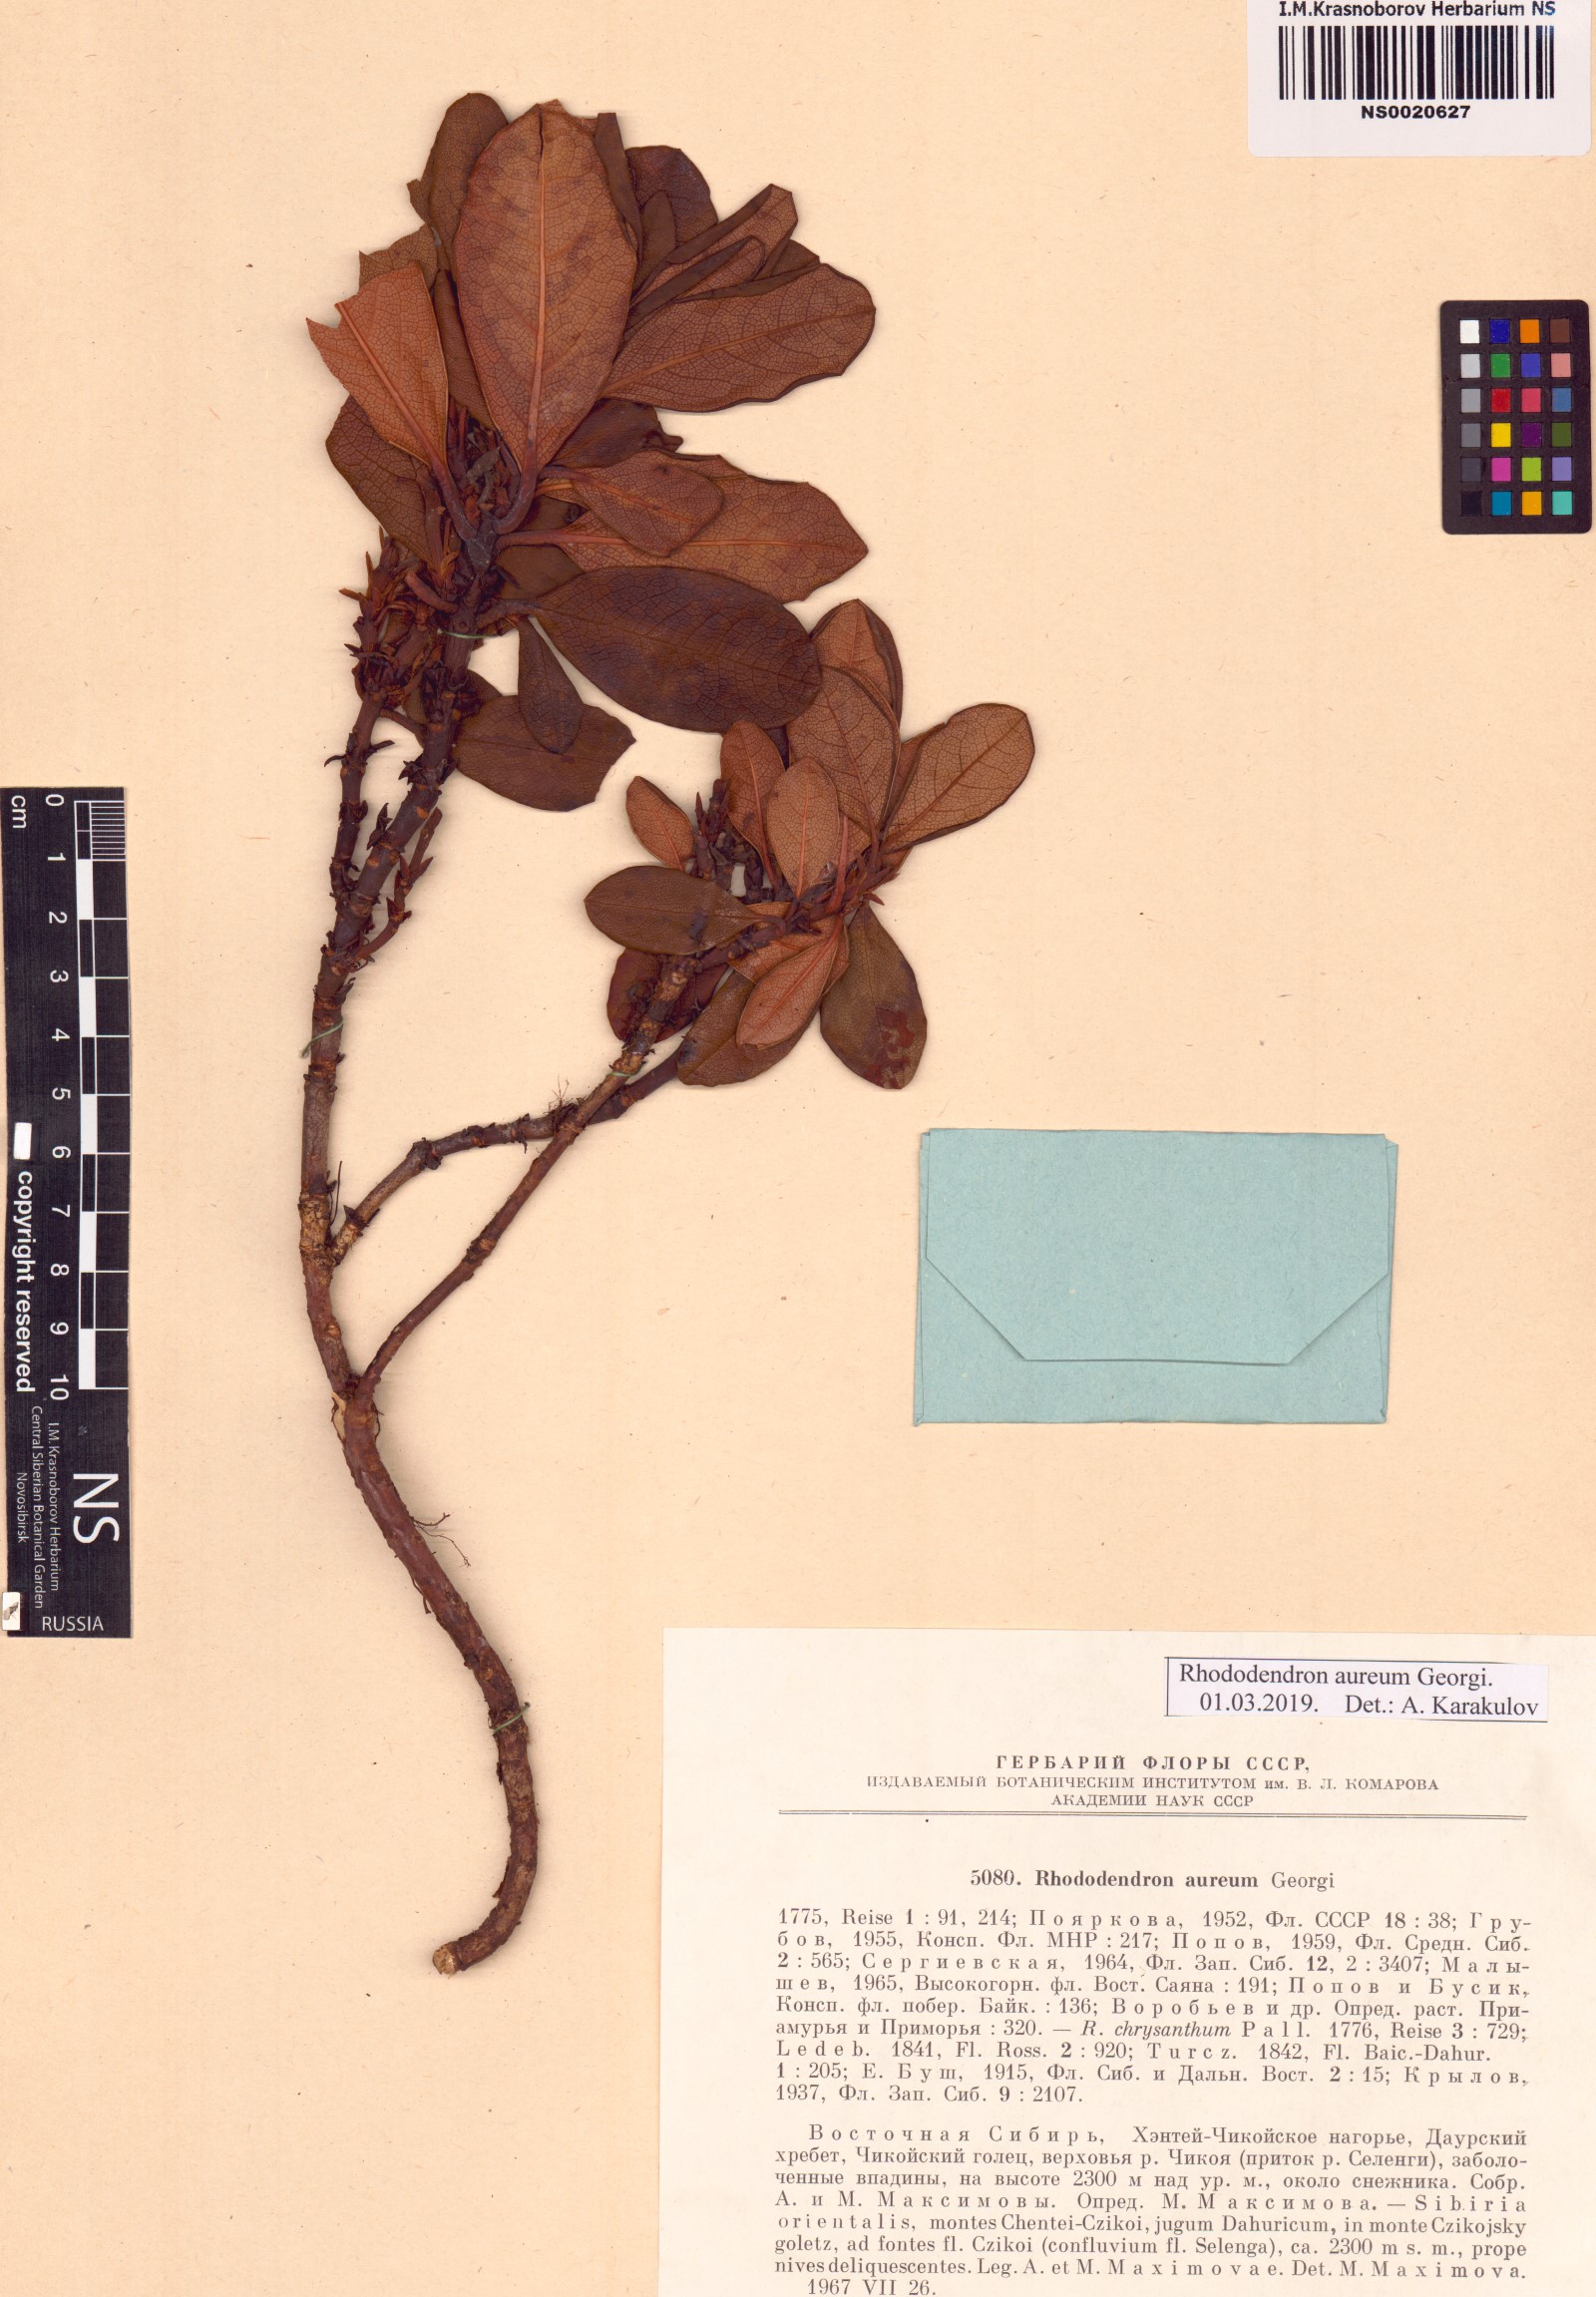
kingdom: Plantae
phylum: Tracheophyta
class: Magnoliopsida
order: Ericales
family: Ericaceae
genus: Rhododendron
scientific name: Rhododendron aureum
